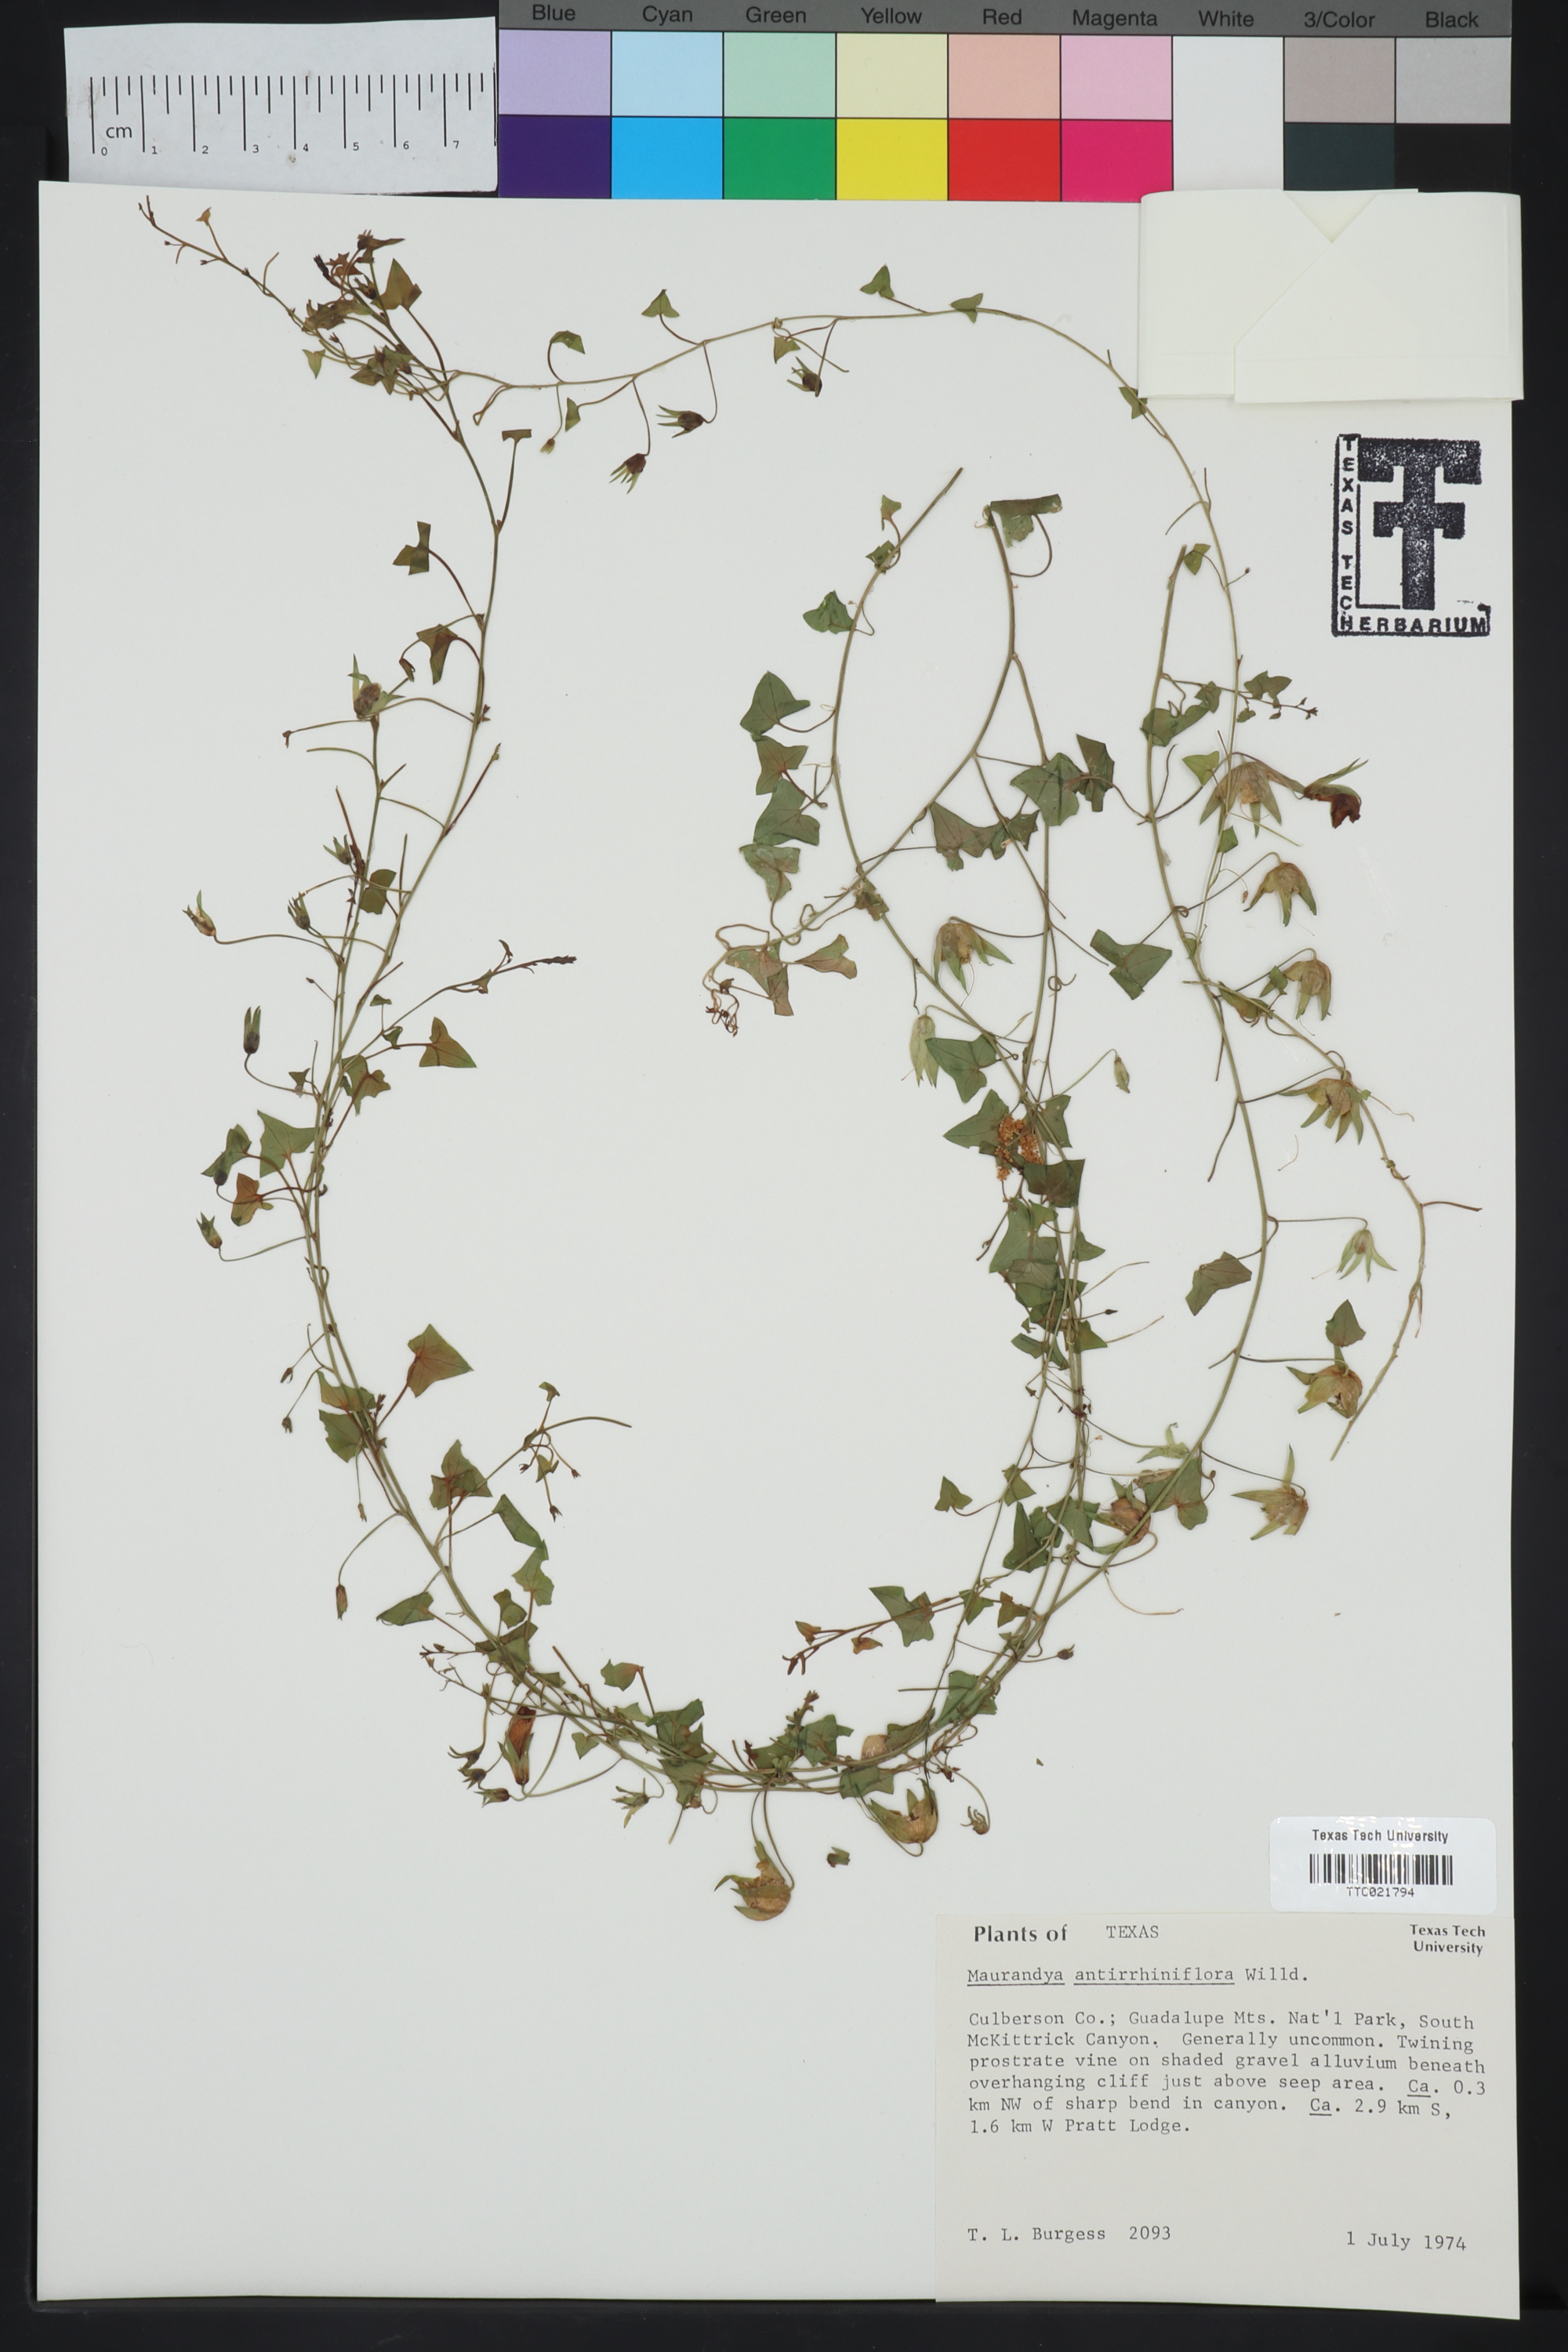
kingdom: Plantae
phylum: Tracheophyta
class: Magnoliopsida
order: Lamiales
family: Plantaginaceae
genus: Maurandella
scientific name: Maurandella antirrhiniflora
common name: Violet twining-snapdragon
